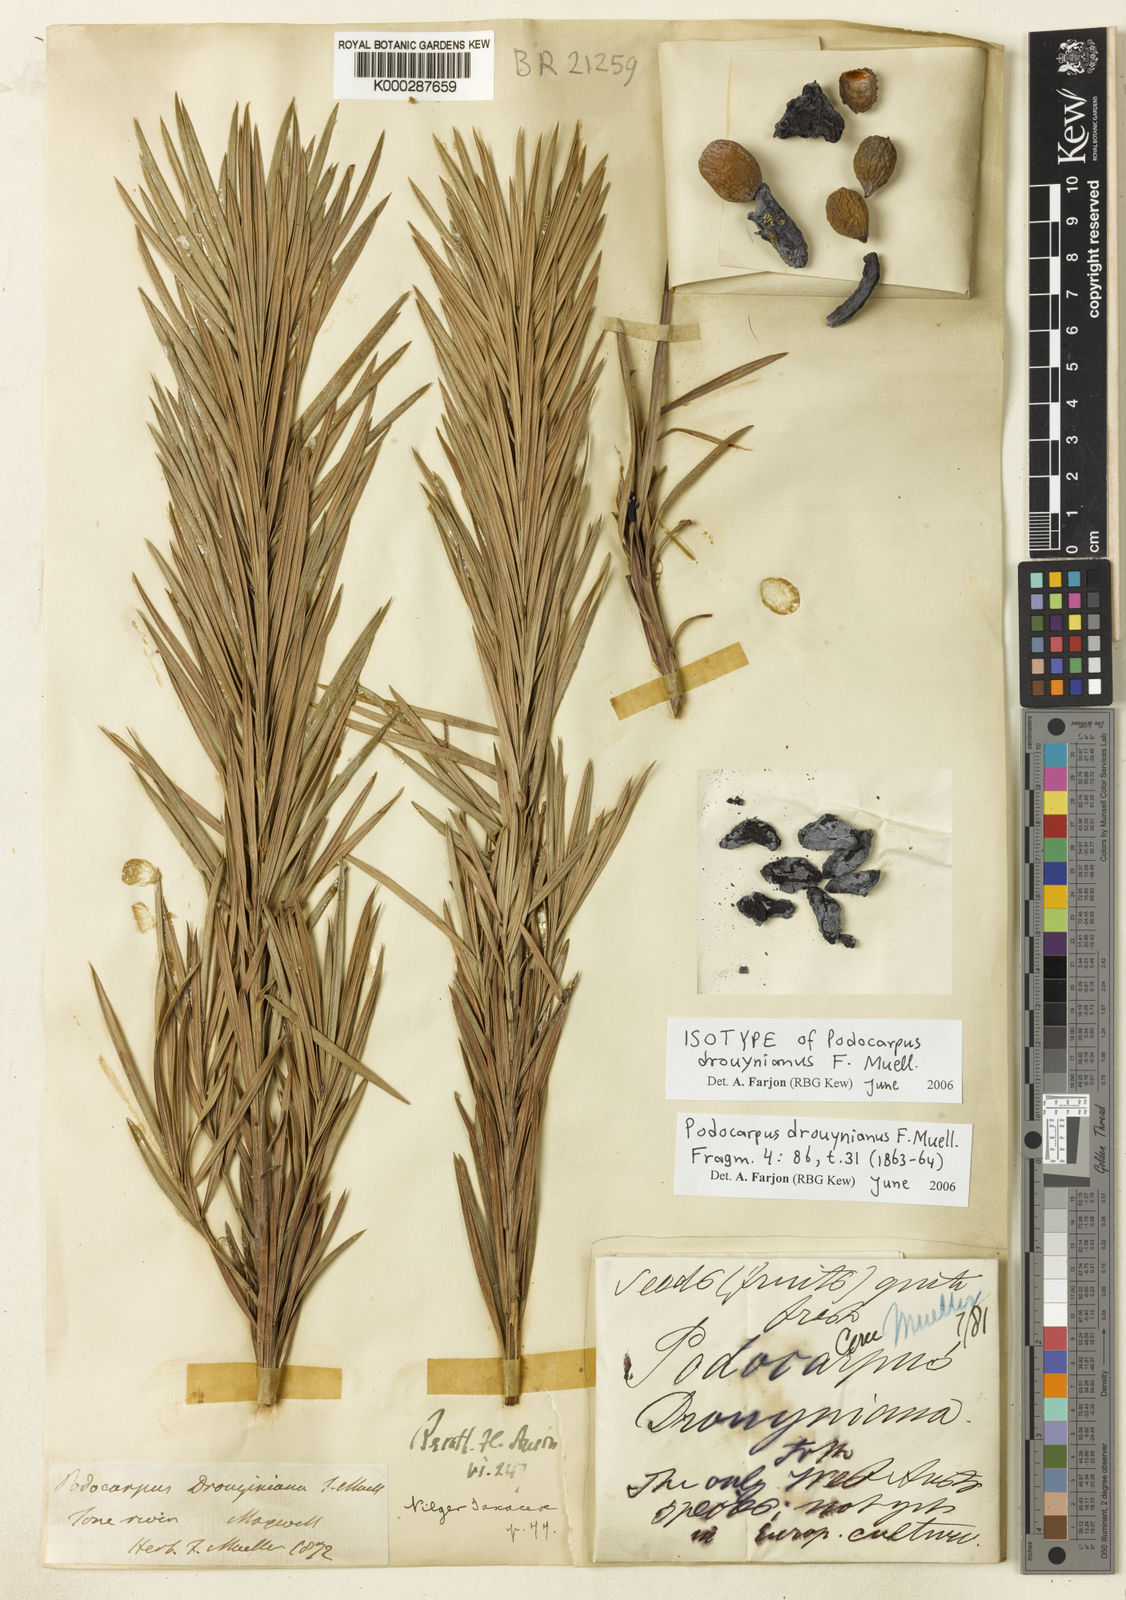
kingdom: Plantae
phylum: Tracheophyta
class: Pinopsida
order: Pinales
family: Podocarpaceae
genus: Podocarpus
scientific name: Podocarpus drouynianus
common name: Emu berry
